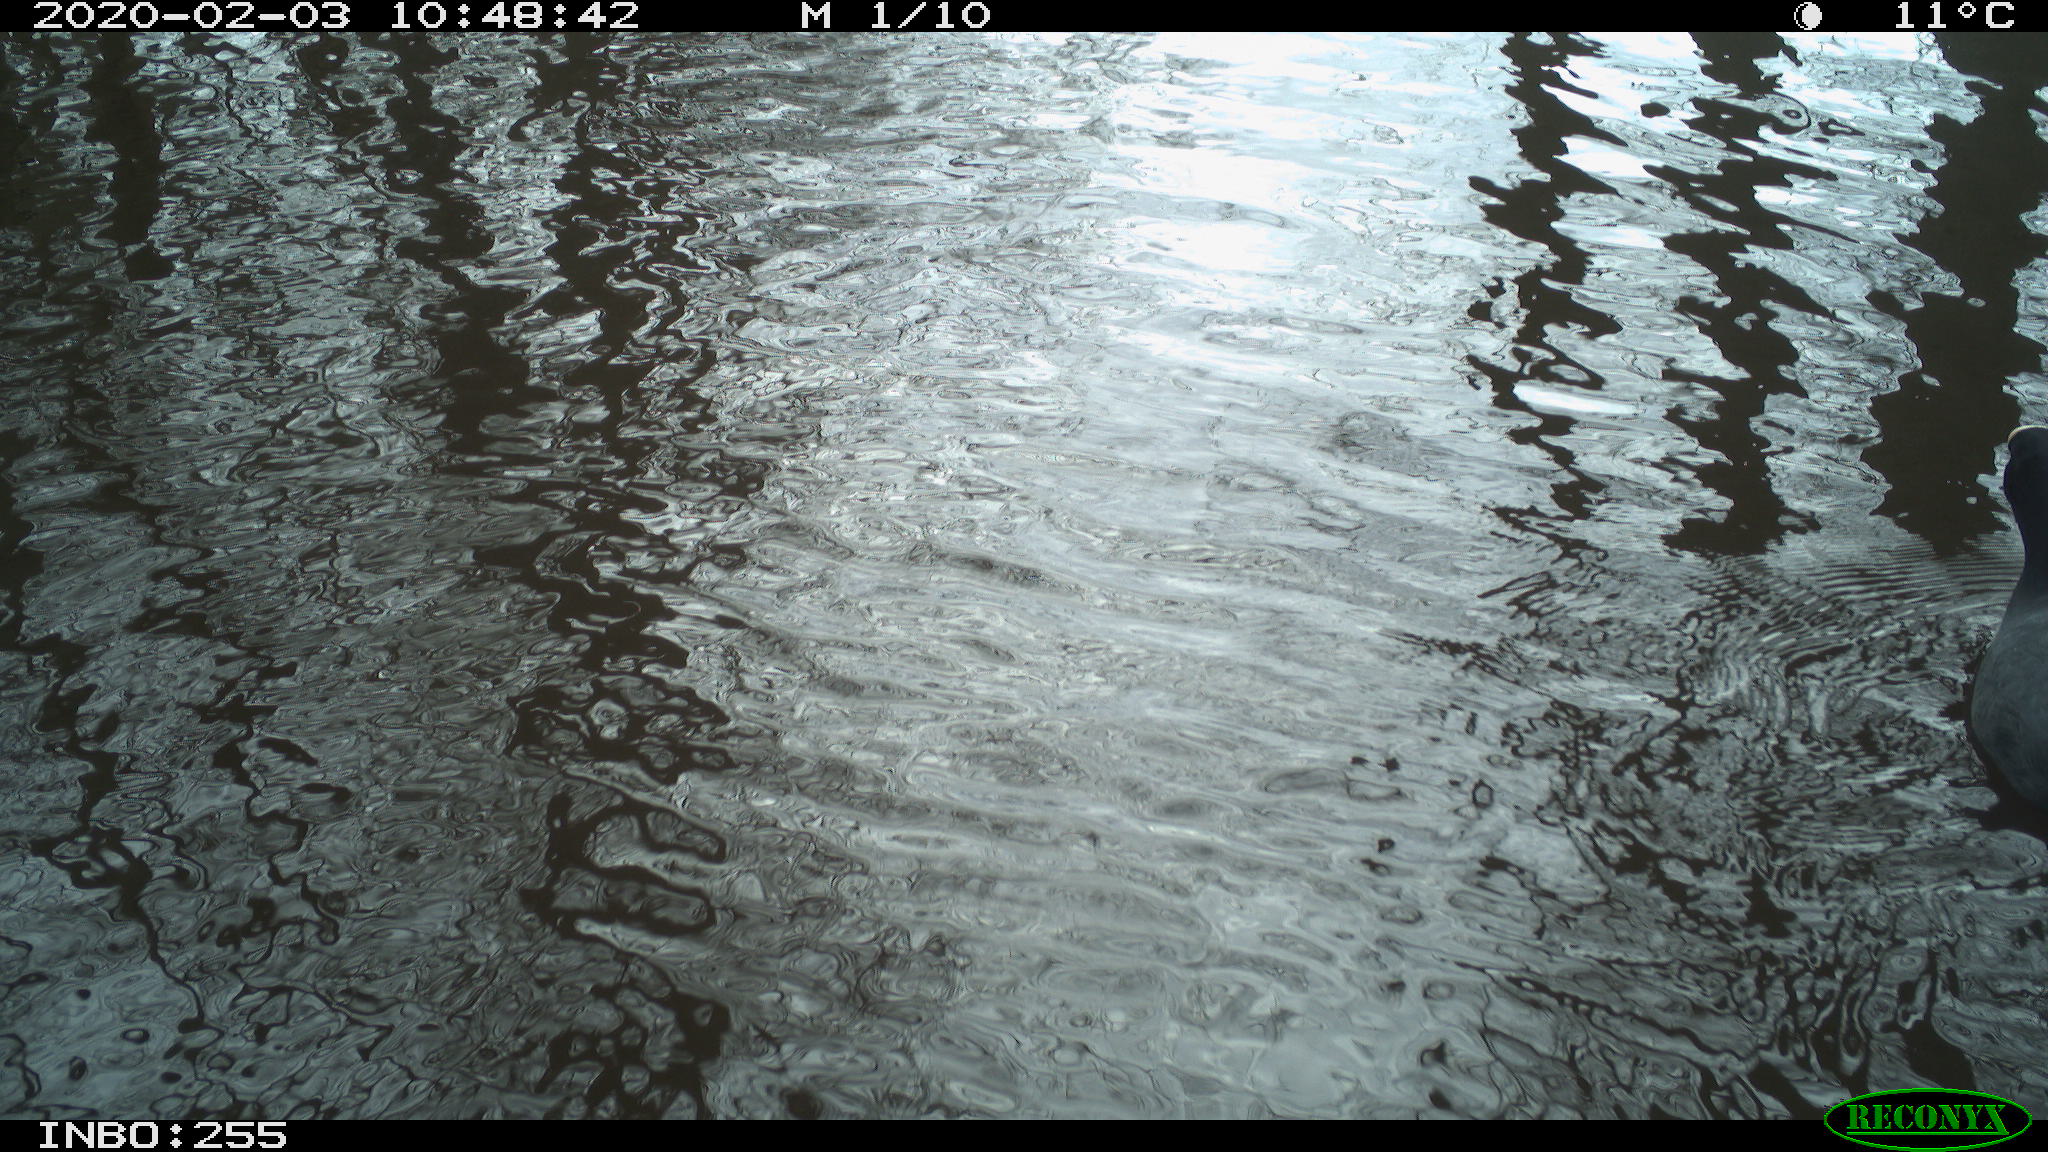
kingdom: Animalia
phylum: Chordata
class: Aves
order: Gruiformes
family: Rallidae
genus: Fulica
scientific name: Fulica atra
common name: Eurasian coot
